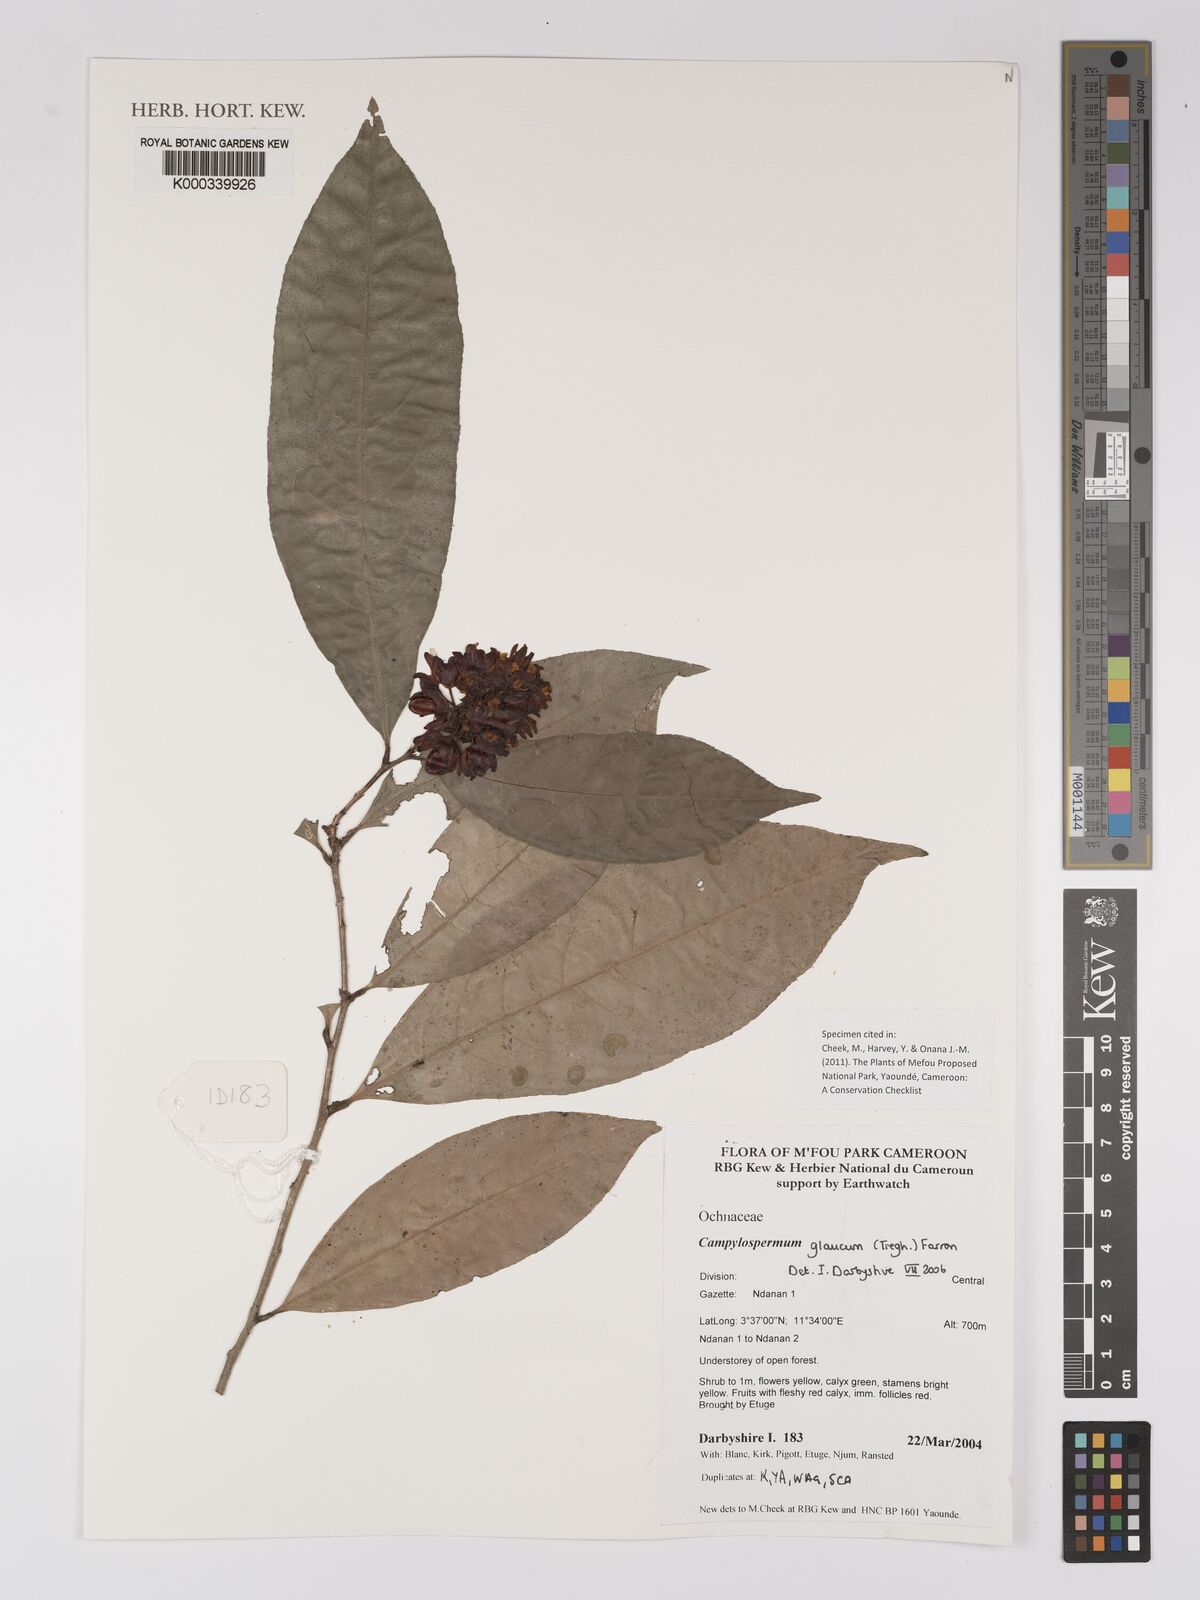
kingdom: Plantae
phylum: Tracheophyta
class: Magnoliopsida
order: Malpighiales
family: Ochnaceae
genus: Campylospermum
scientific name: Campylospermum glaucum
